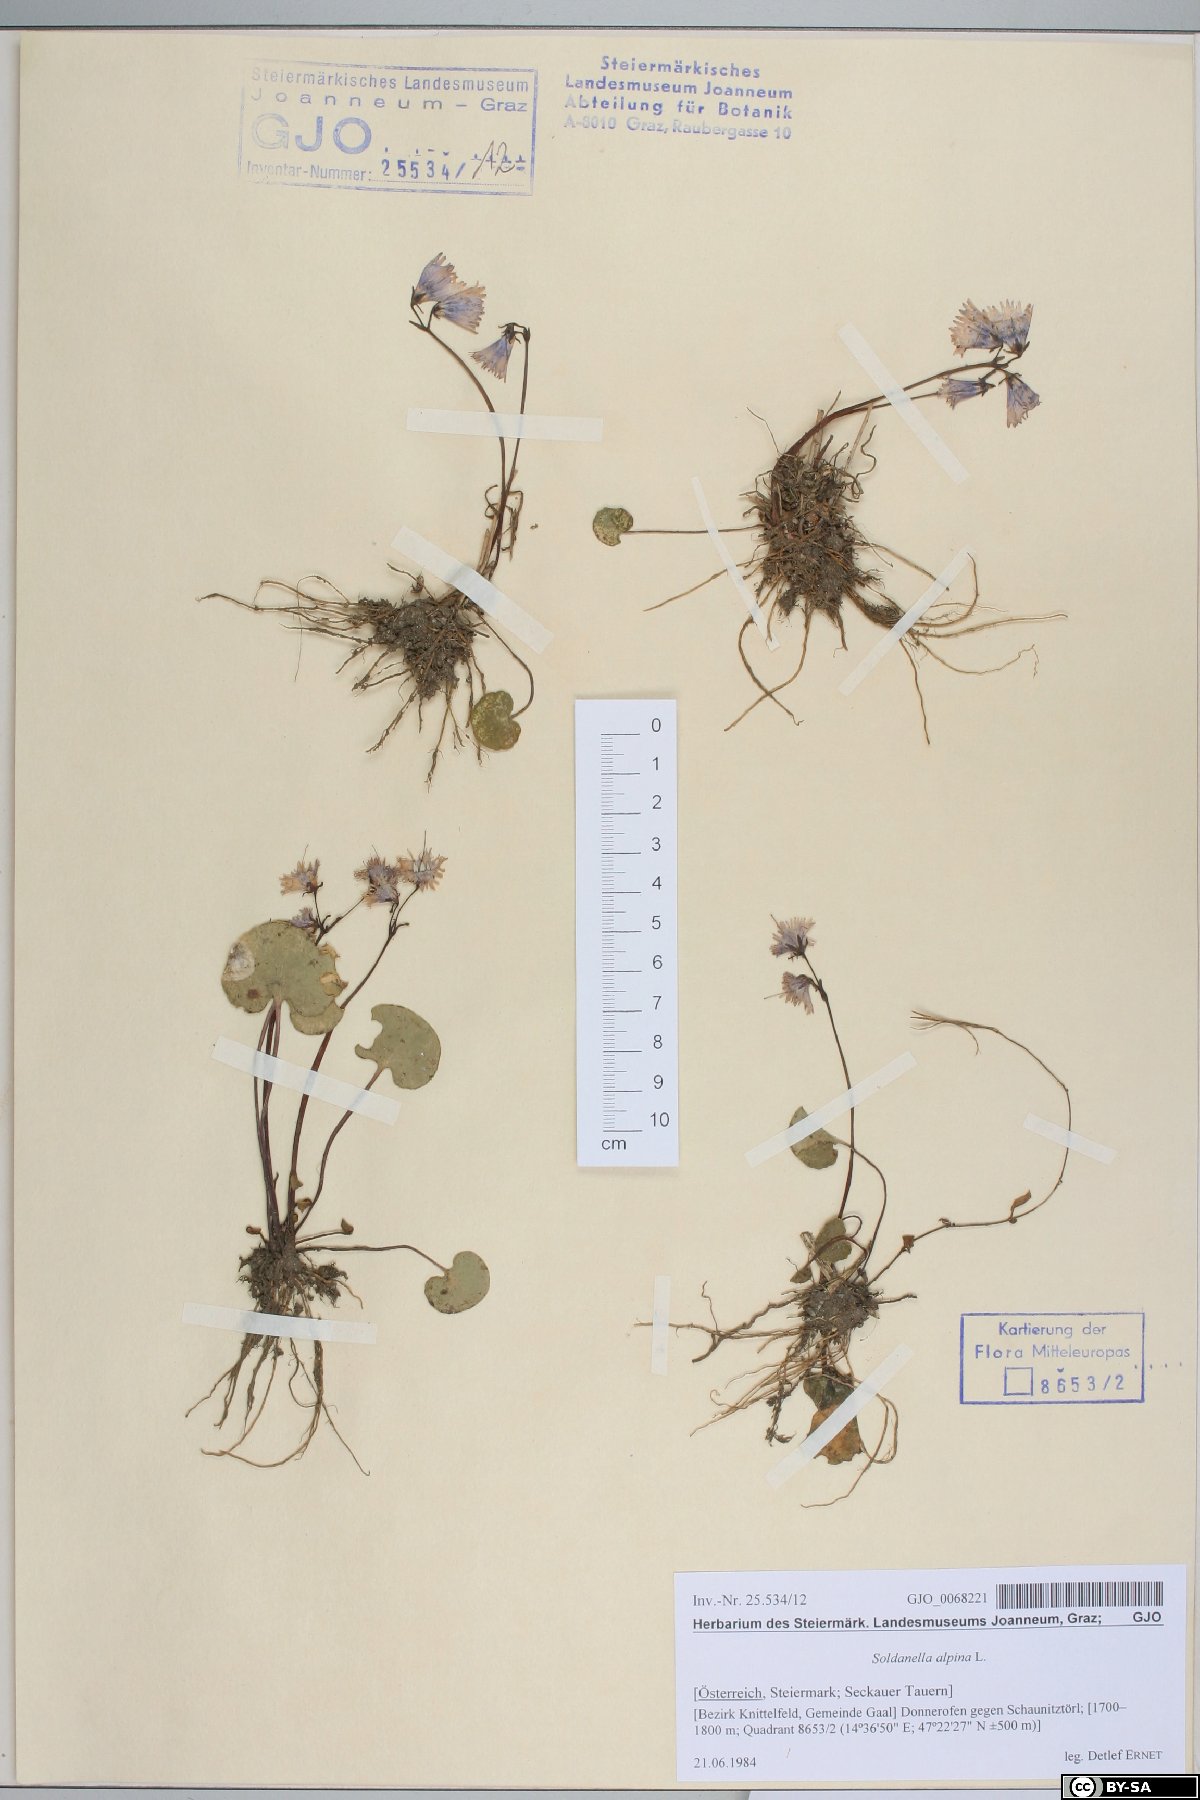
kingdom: Plantae
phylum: Tracheophyta
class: Magnoliopsida
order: Ericales
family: Primulaceae
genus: Soldanella
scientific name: Soldanella alpina
